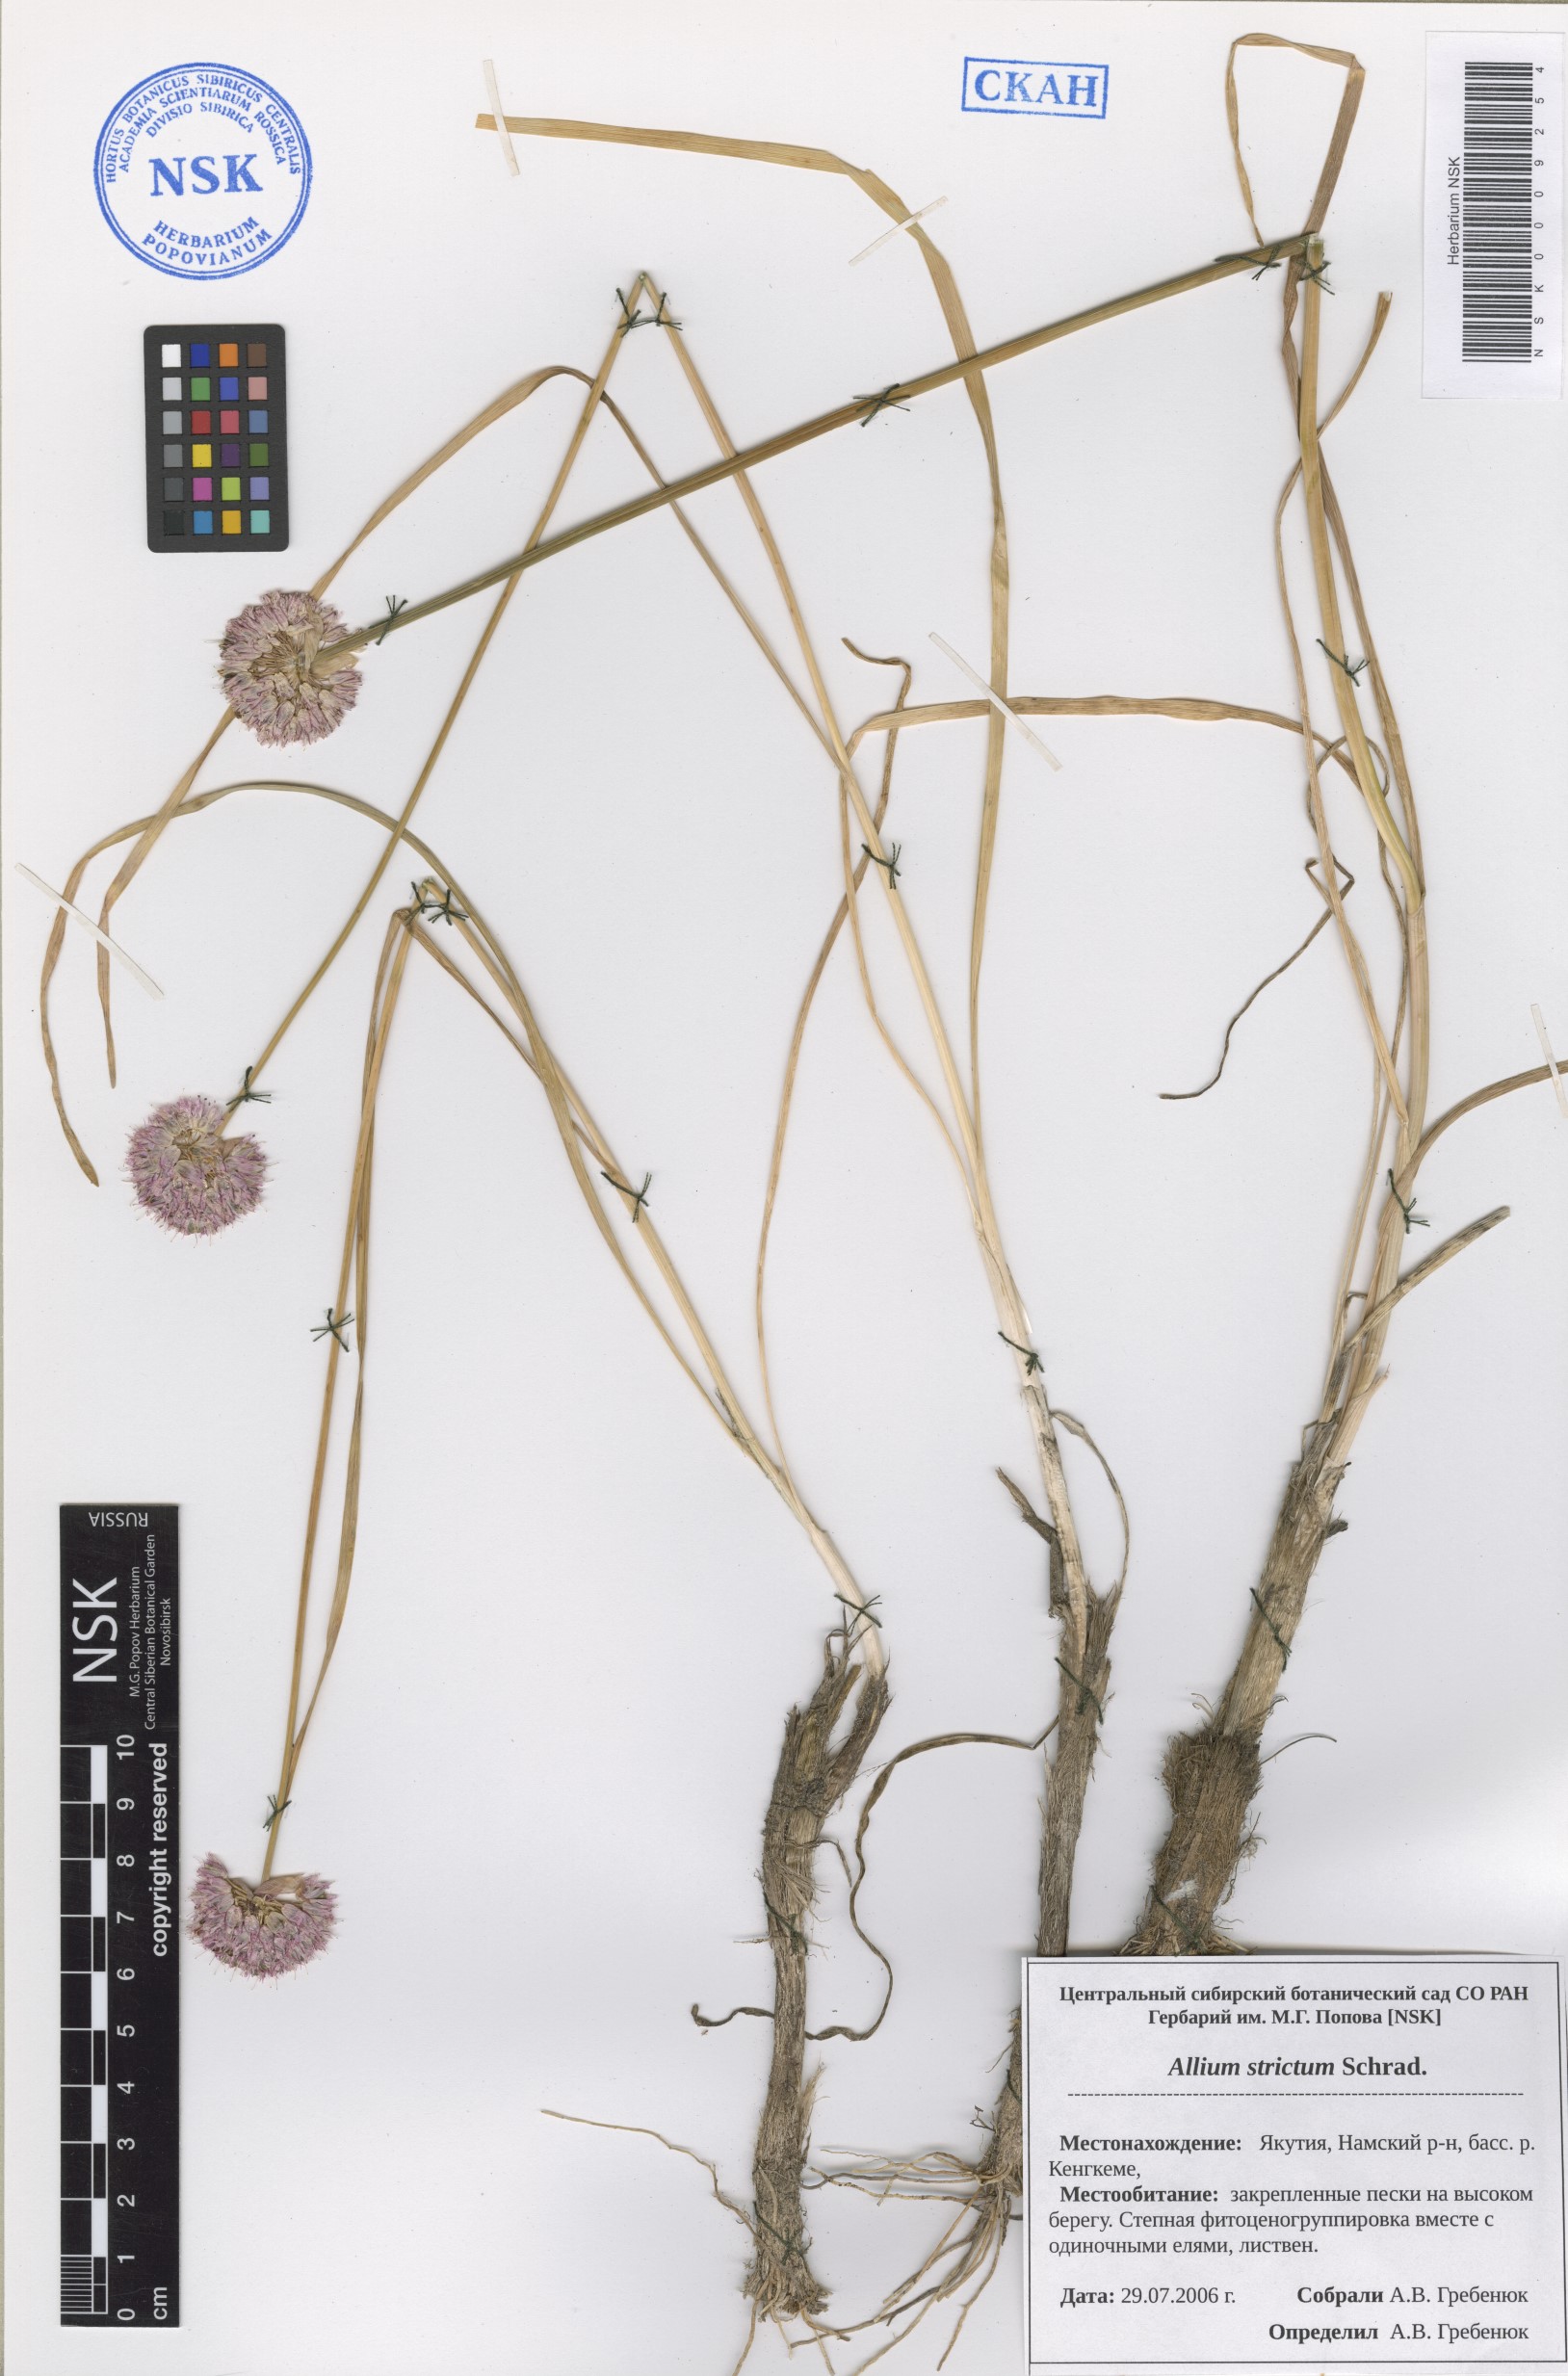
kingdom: Plantae
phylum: Tracheophyta
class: Liliopsida
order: Asparagales
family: Amaryllidaceae
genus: Allium
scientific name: Allium strictum
